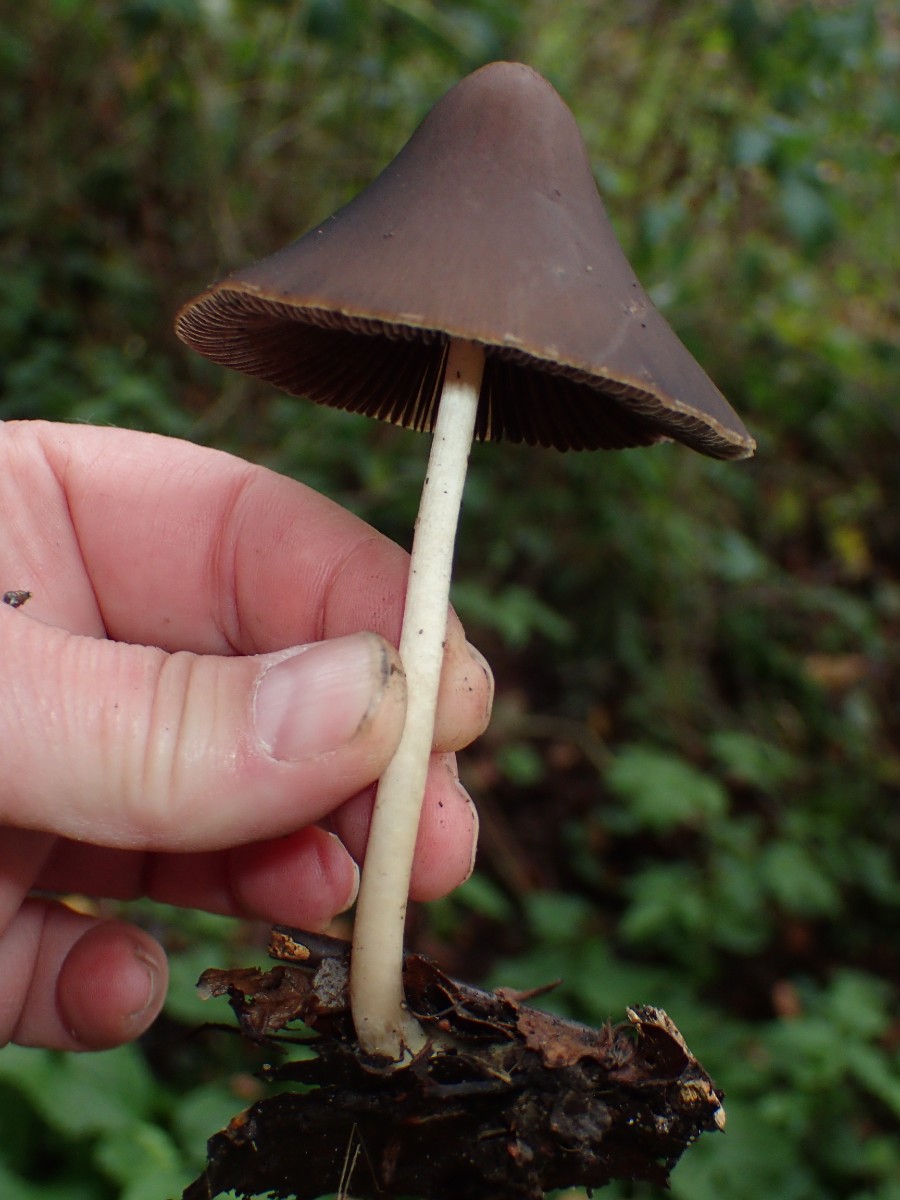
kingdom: Fungi
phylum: Basidiomycota
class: Agaricomycetes
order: Agaricales
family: Psathyrellaceae
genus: Parasola
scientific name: Parasola conopilea
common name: kegle-hjulhat
